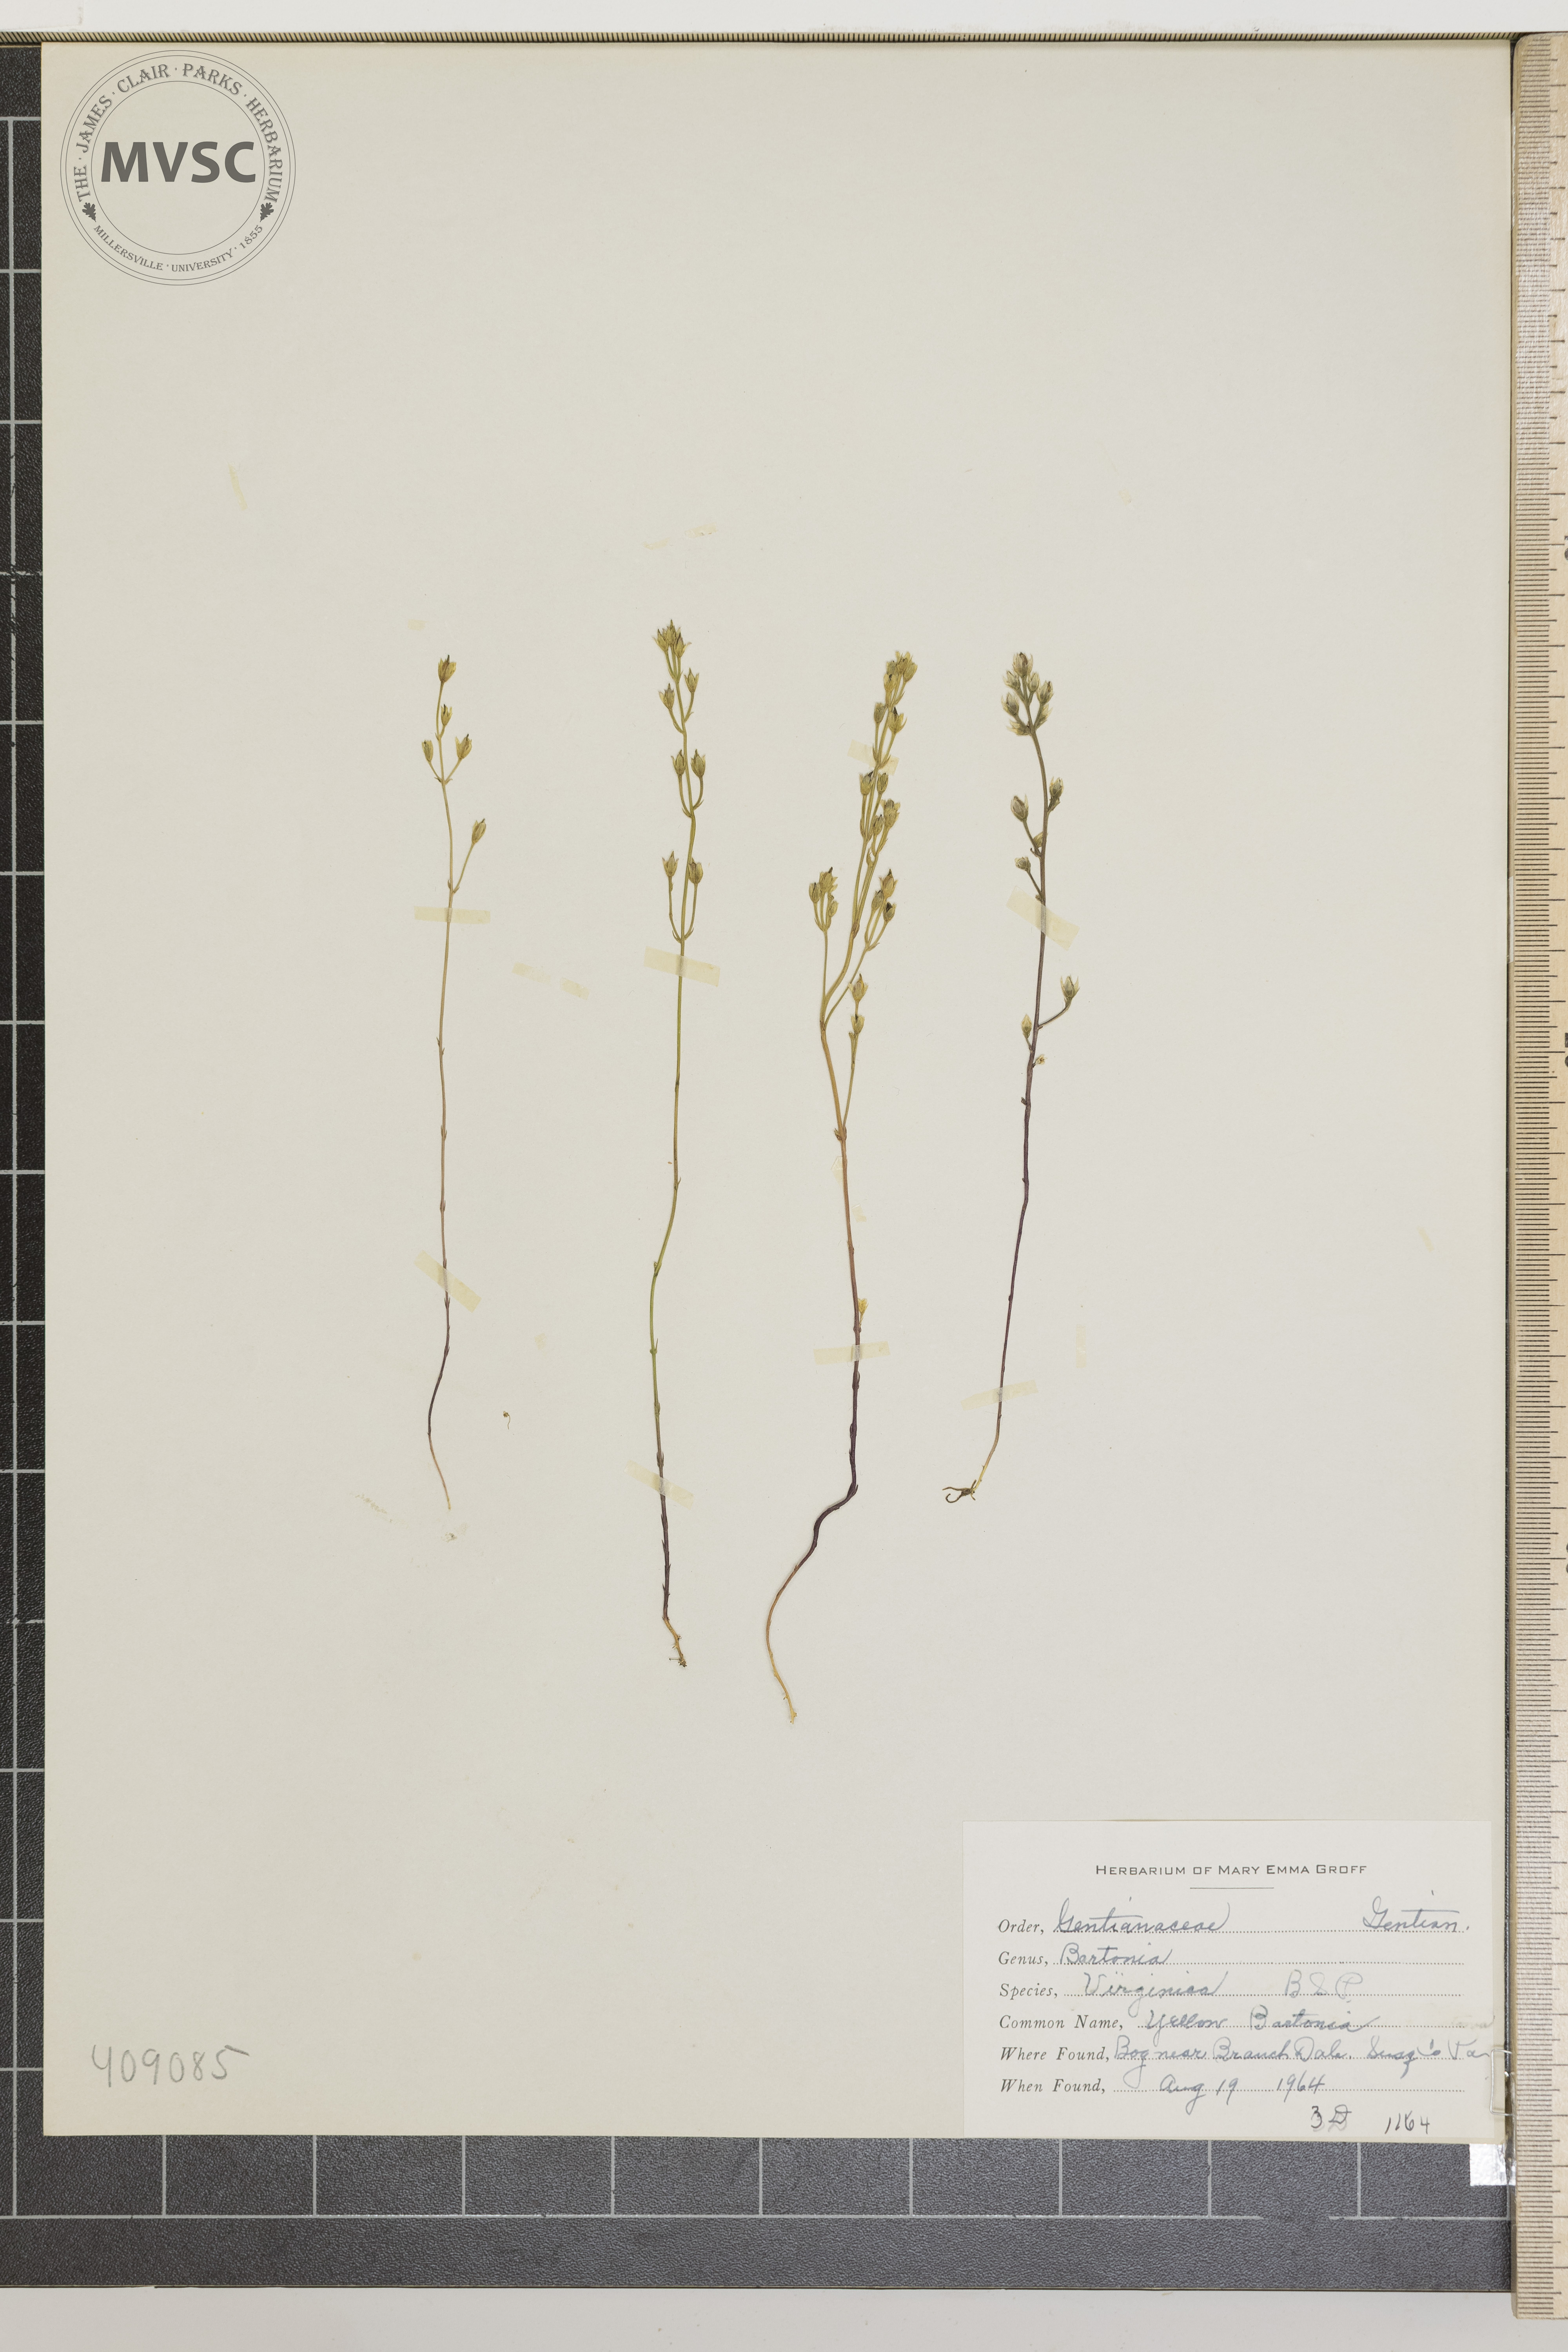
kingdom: Plantae
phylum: Tracheophyta
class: Magnoliopsida
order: Gentianales
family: Gentianaceae
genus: Bartonia
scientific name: Bartonia virginica
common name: Yellow Bartonia
